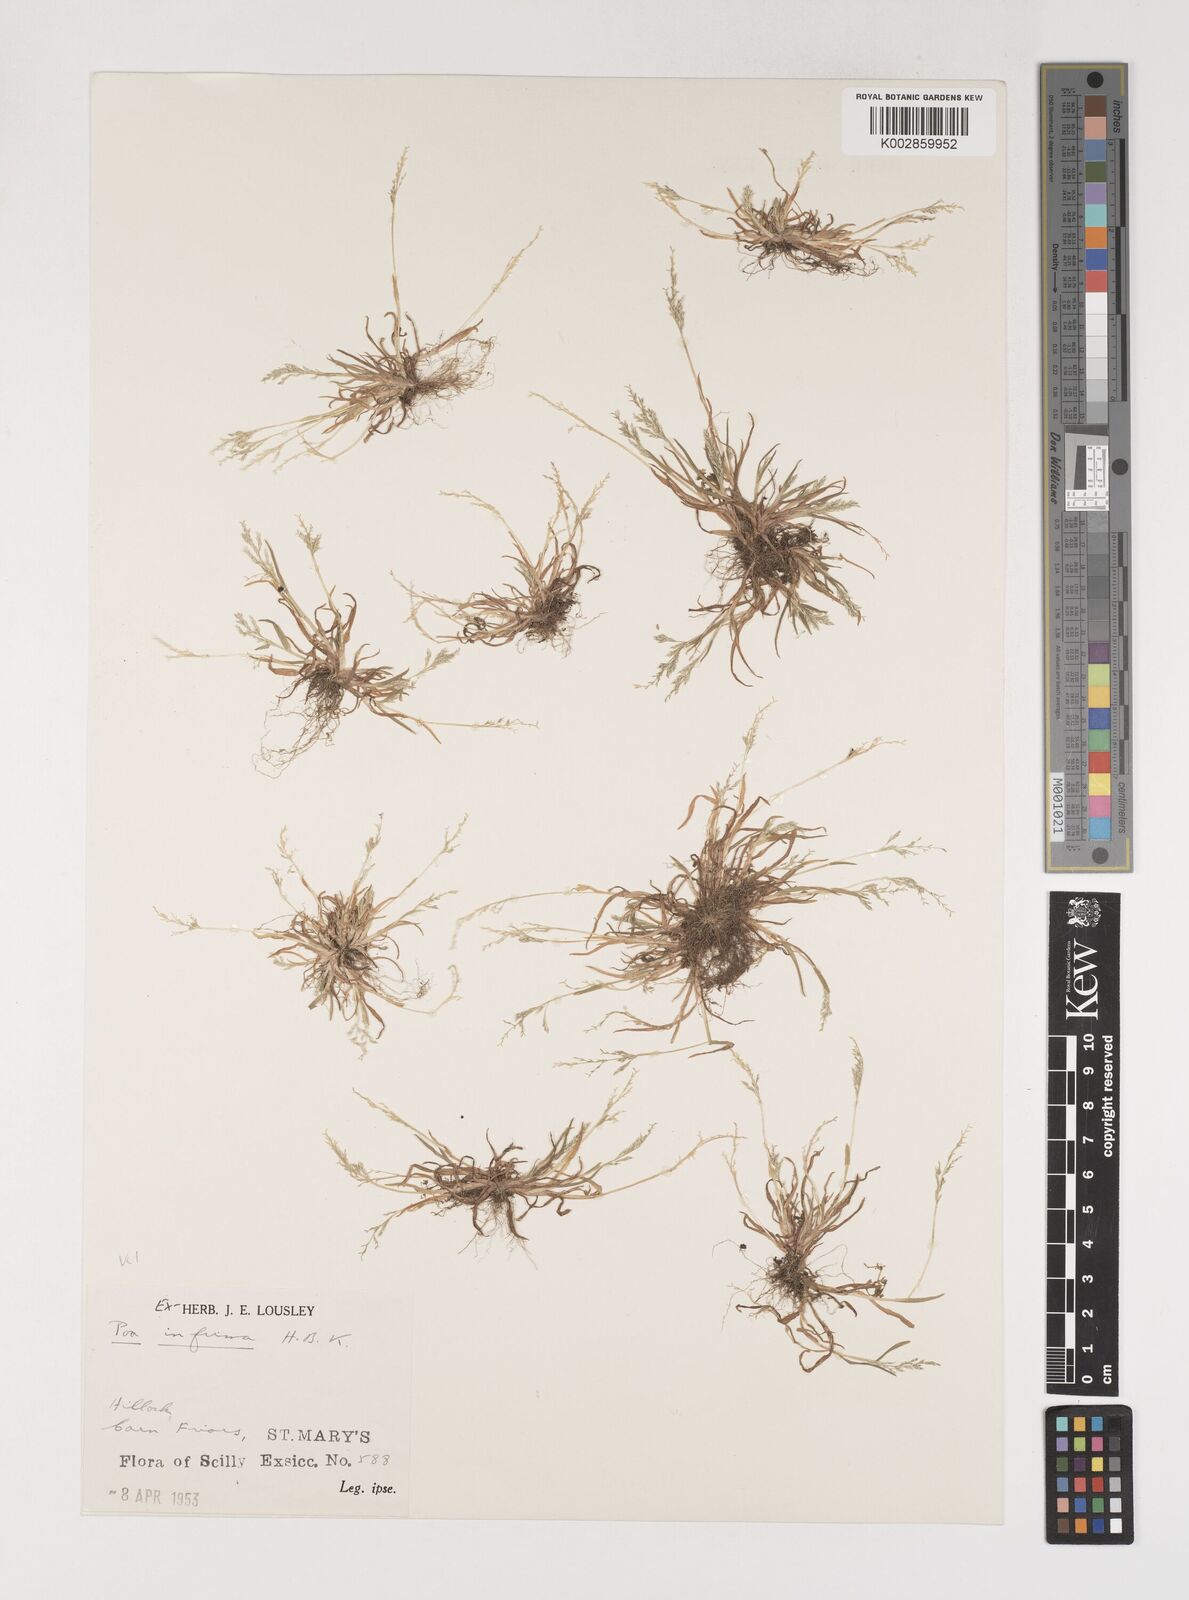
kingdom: Plantae
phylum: Tracheophyta
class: Liliopsida
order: Poales
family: Poaceae
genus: Poa
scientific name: Poa infirma
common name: Weak bluegrass
